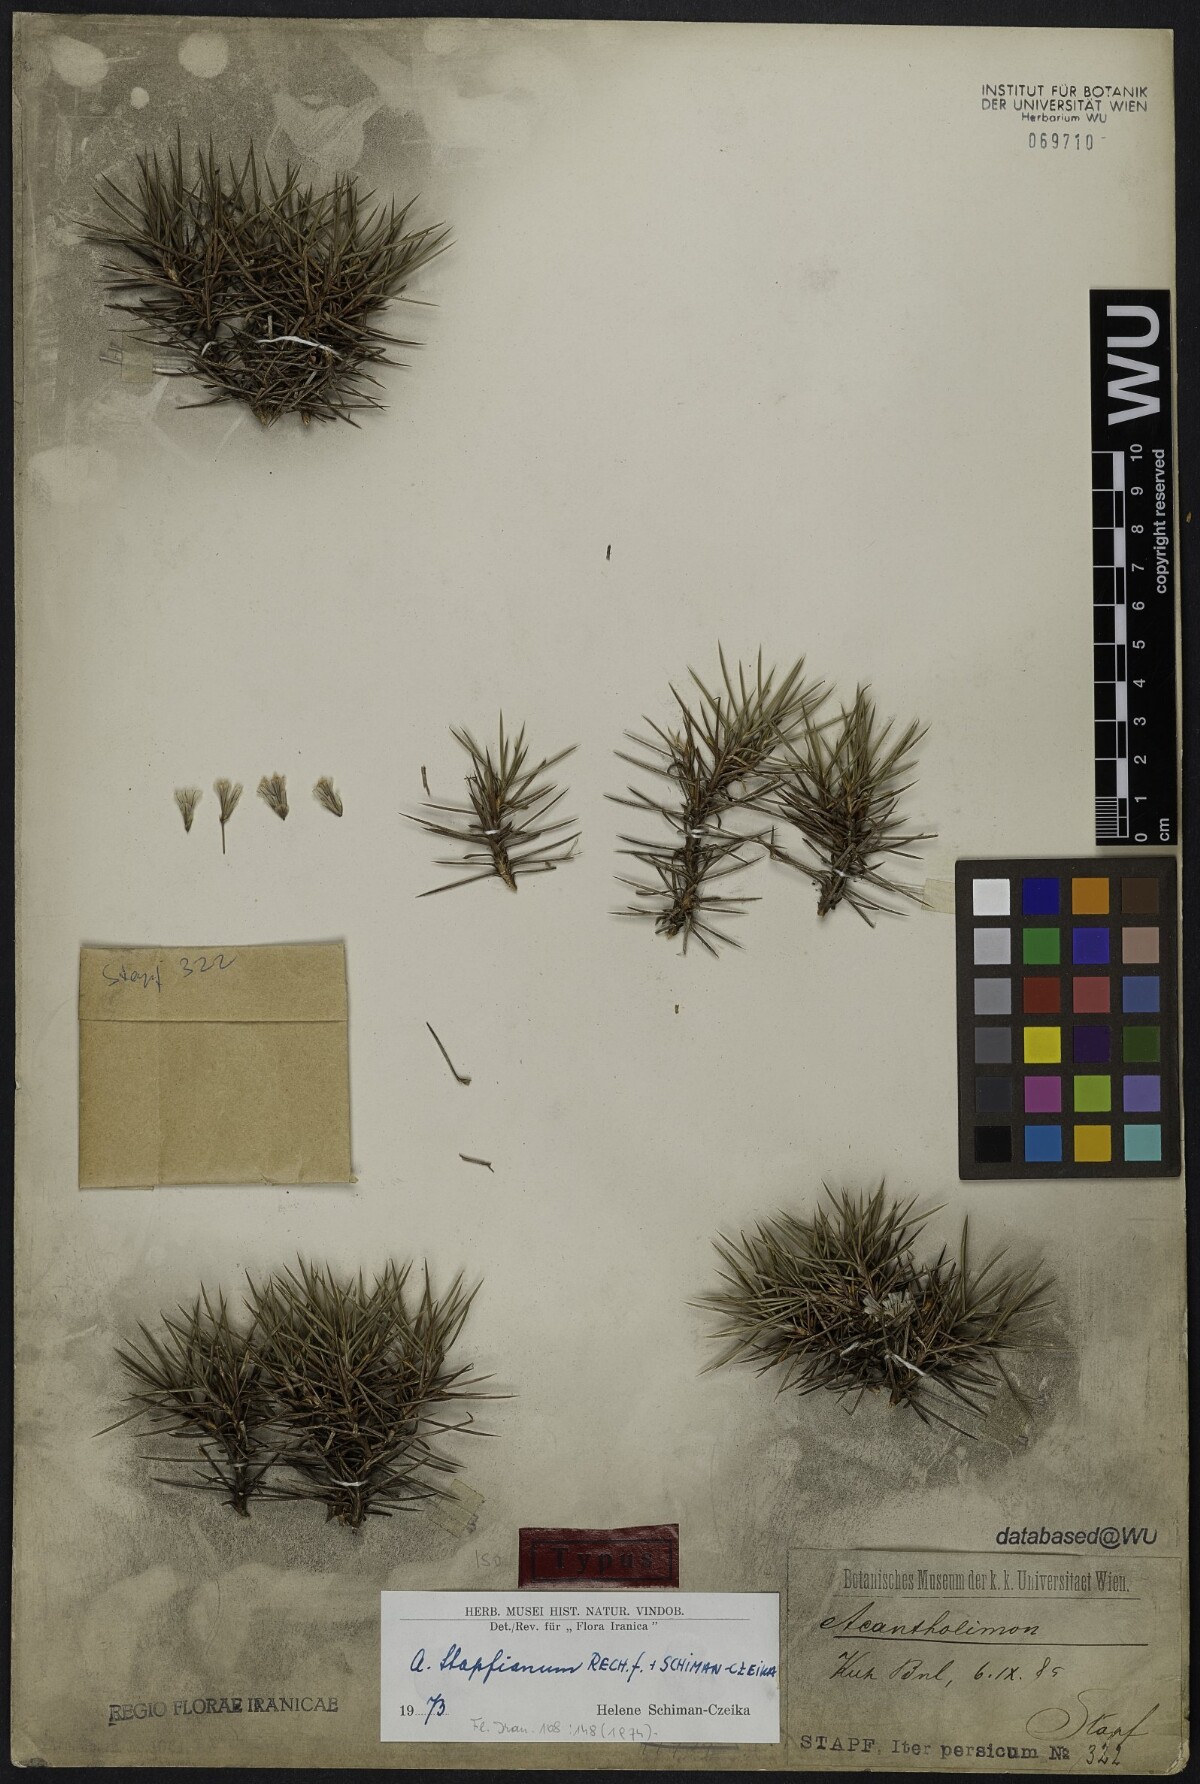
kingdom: Plantae
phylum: Tracheophyta
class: Magnoliopsida
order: Caryophyllales
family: Plumbaginaceae
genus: Acantholimon
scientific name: Acantholimon stapfianum
